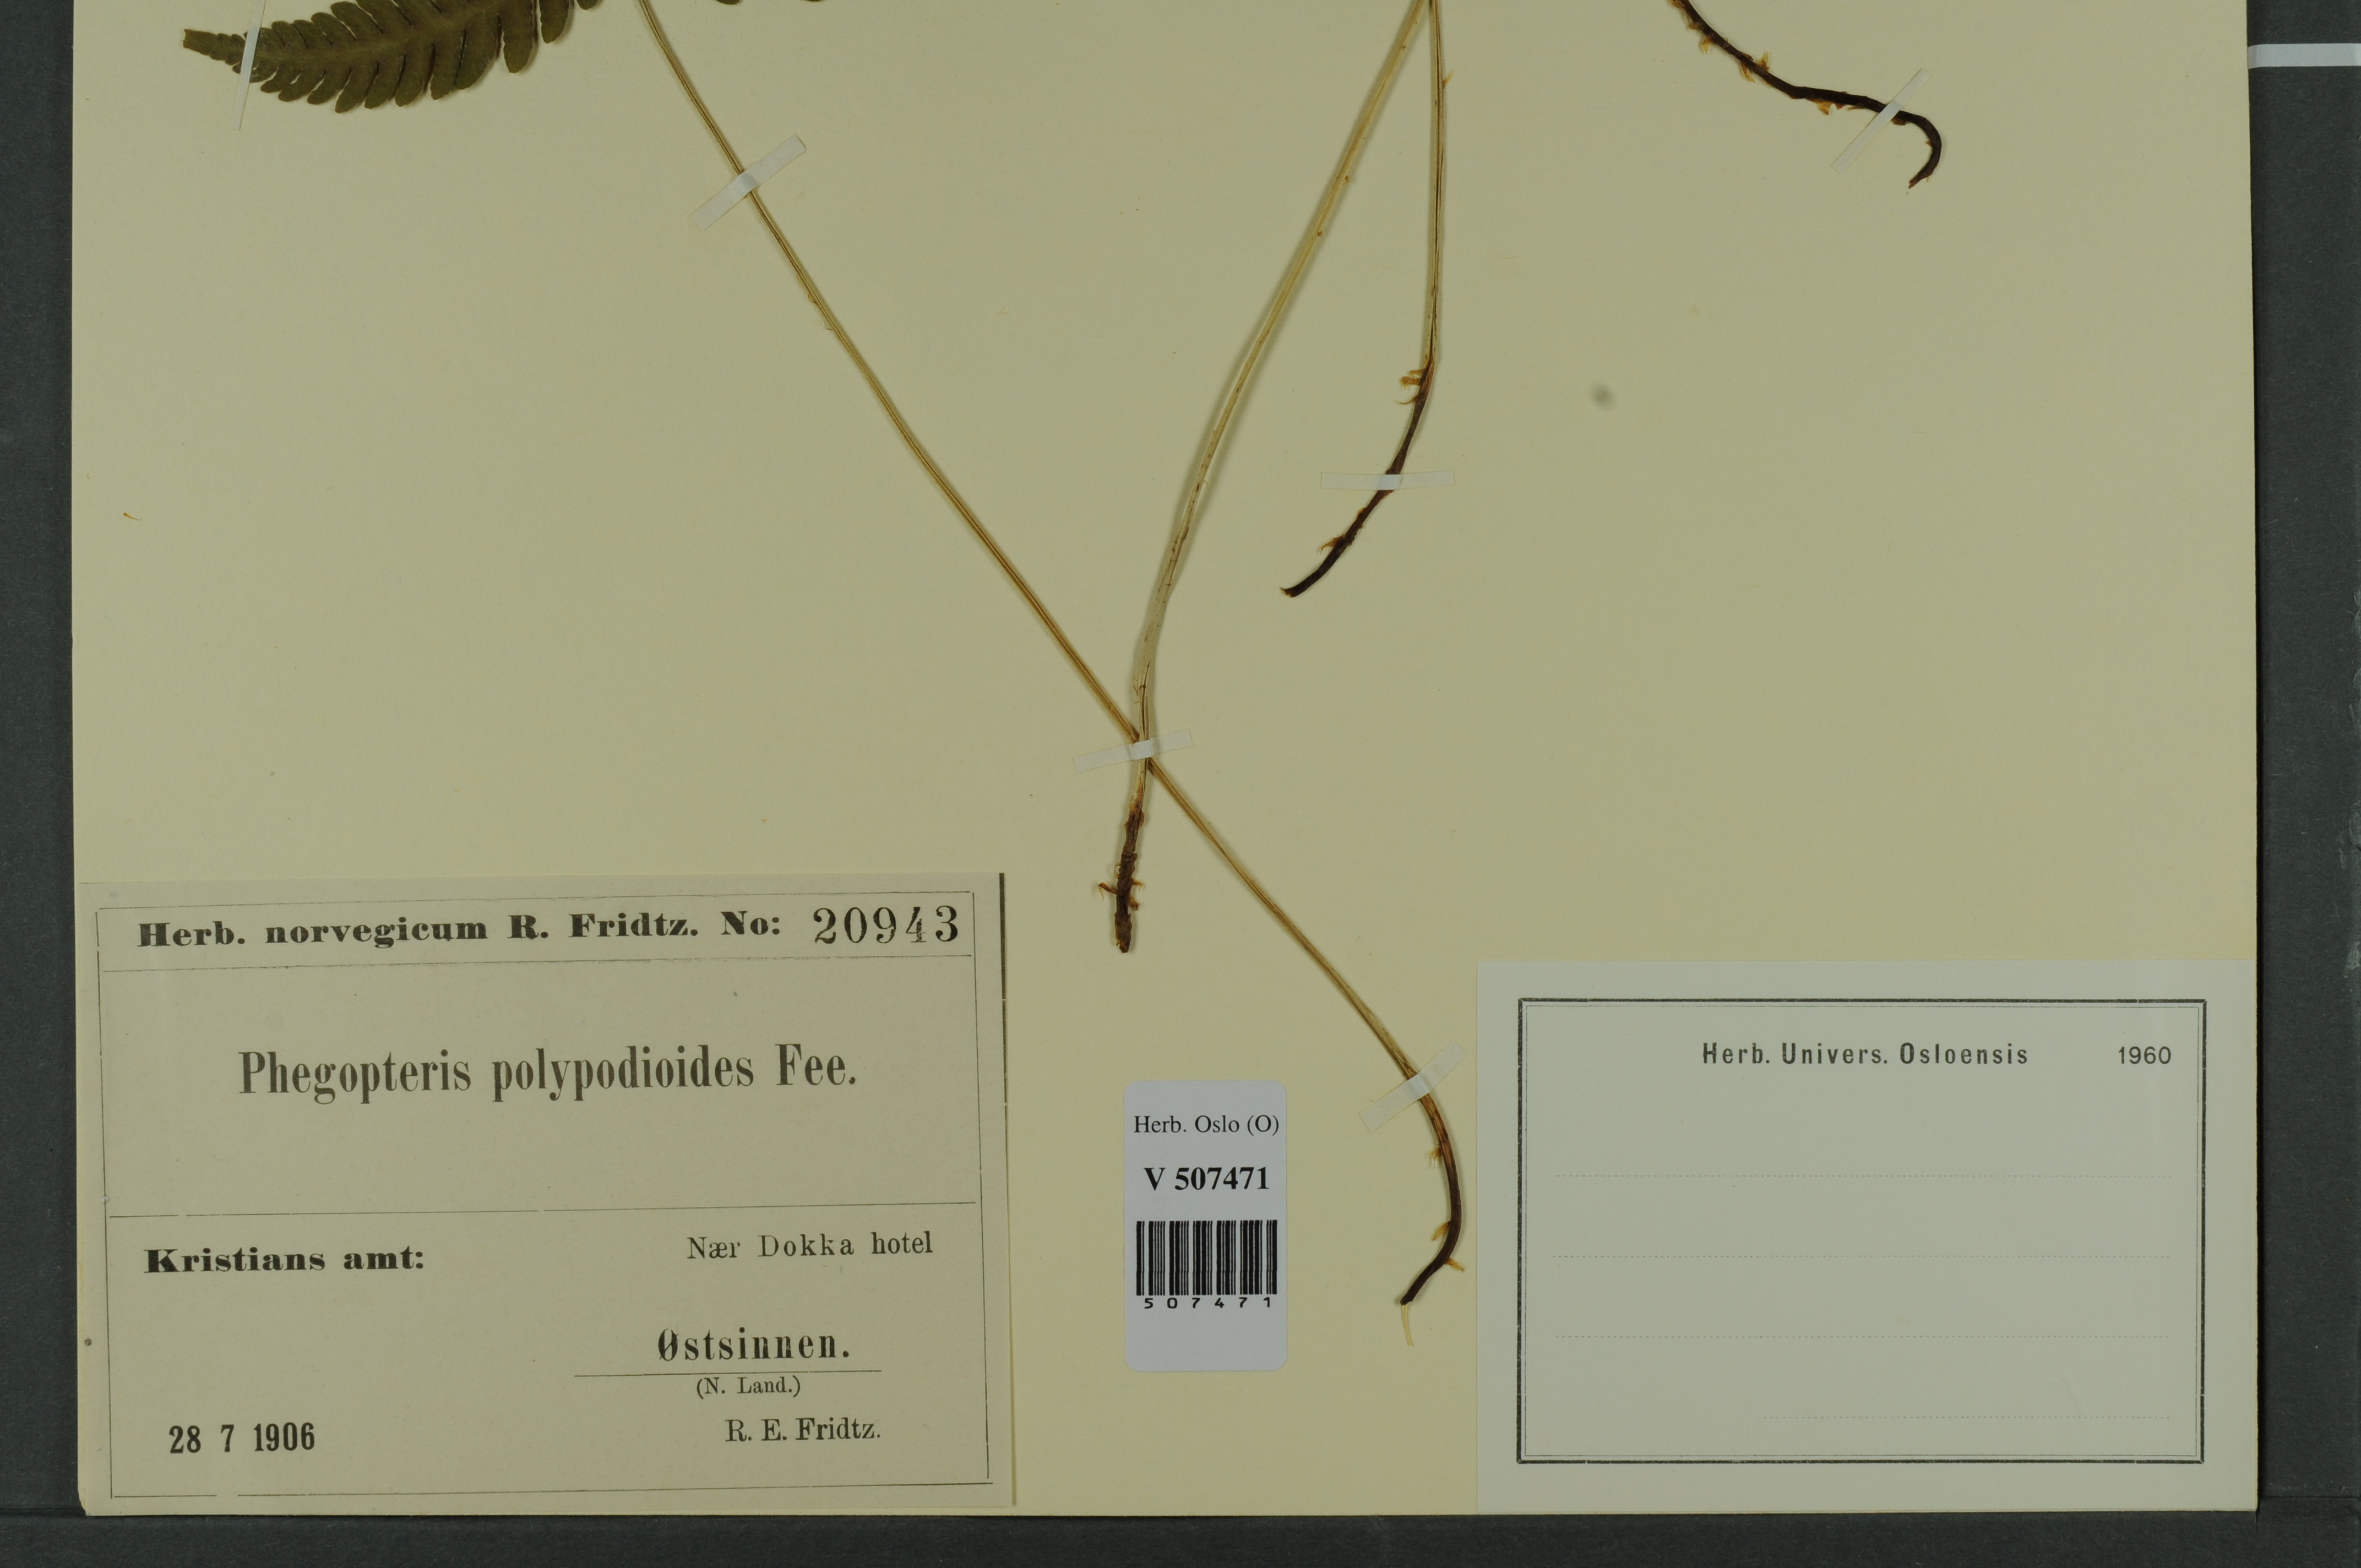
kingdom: Plantae
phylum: Tracheophyta
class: Polypodiopsida
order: Polypodiales
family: Thelypteridaceae
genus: Phegopteris
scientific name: Phegopteris connectilis
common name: Beech fern
